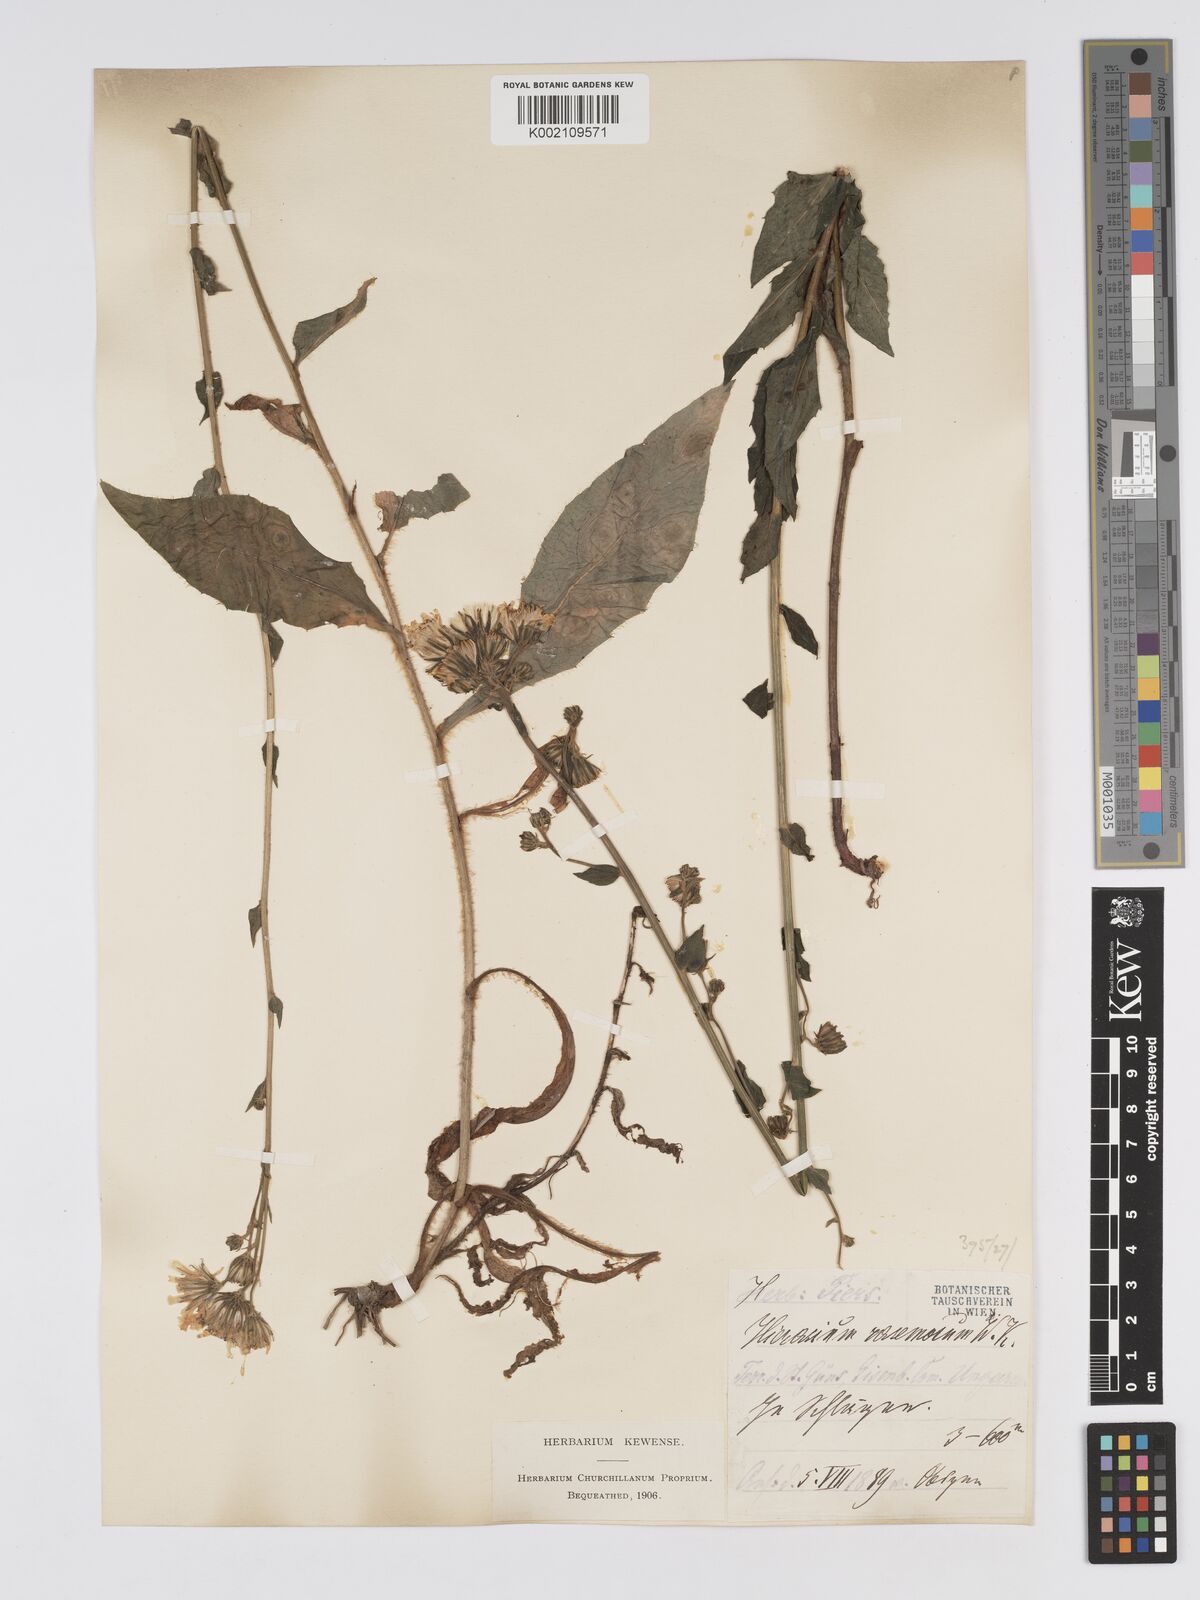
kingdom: Plantae
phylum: Tracheophyta
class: Magnoliopsida
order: Asterales
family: Asteraceae
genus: Hieracium
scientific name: Hieracium racemosum
